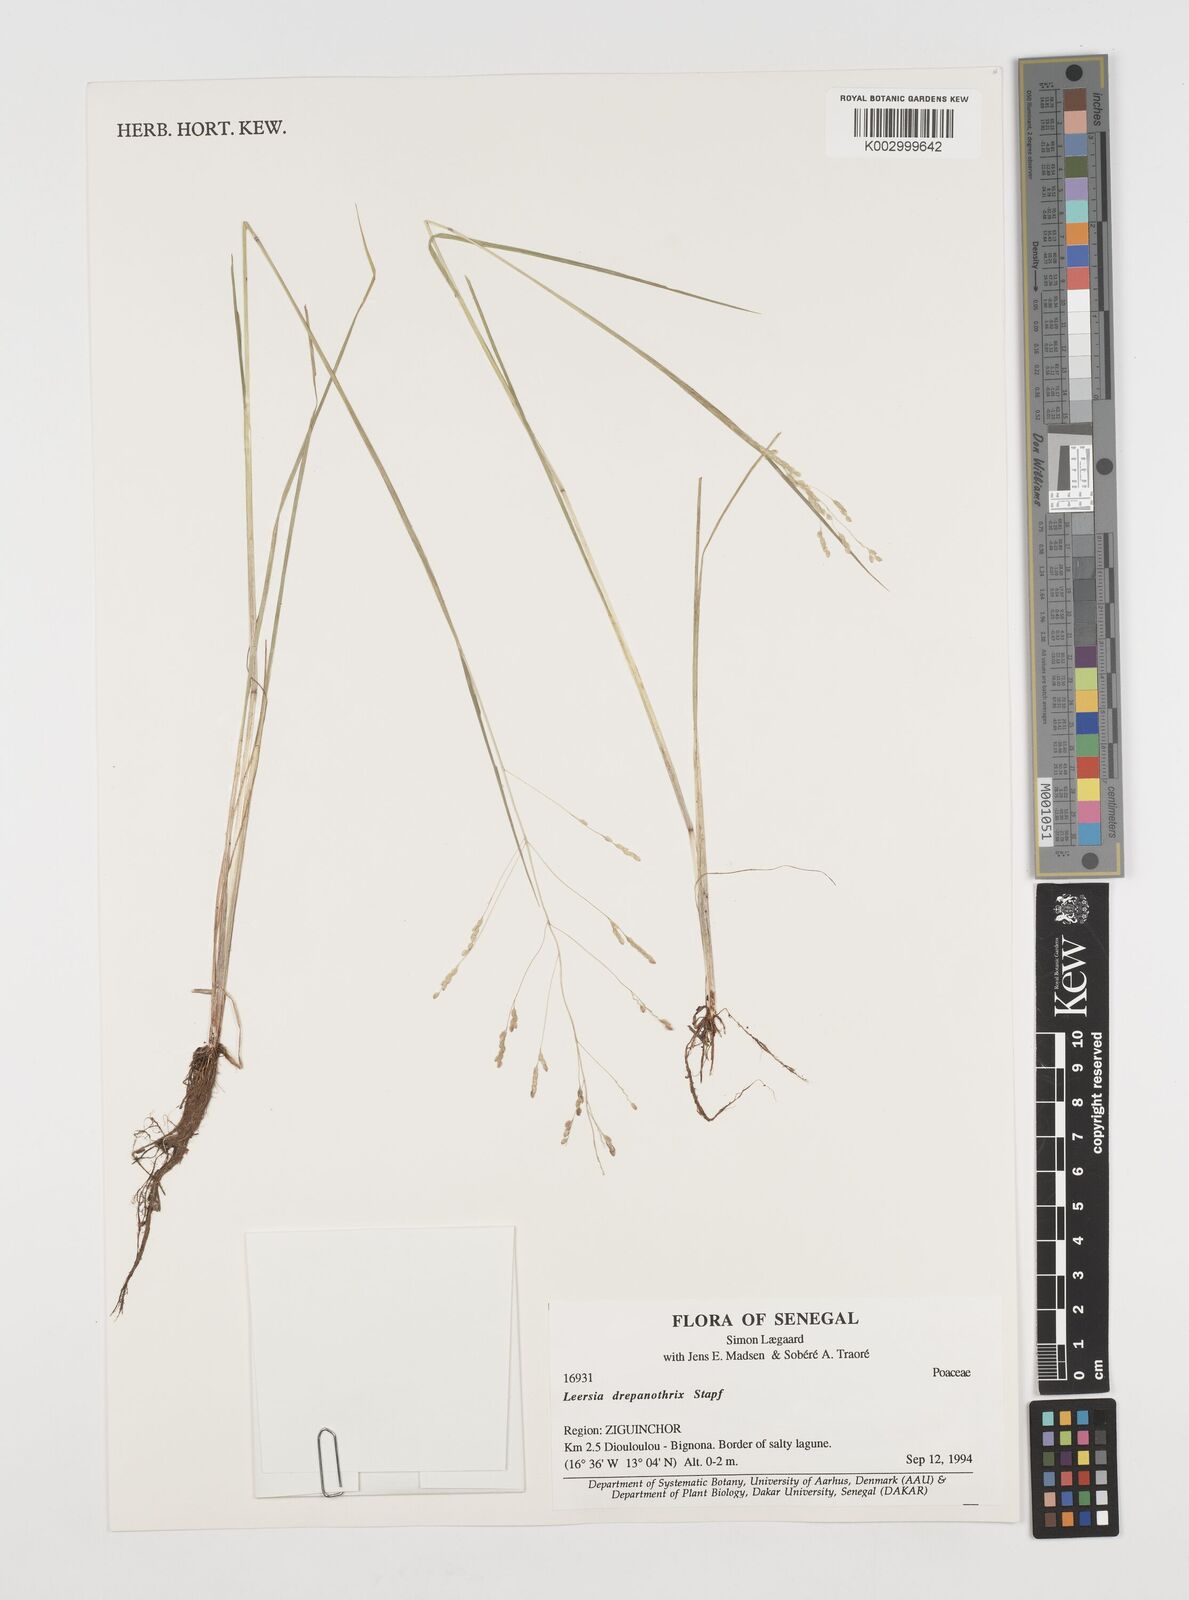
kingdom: Plantae
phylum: Tracheophyta
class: Liliopsida
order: Poales
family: Poaceae
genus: Leersia
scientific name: Leersia hexandra
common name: Southern cut grass
